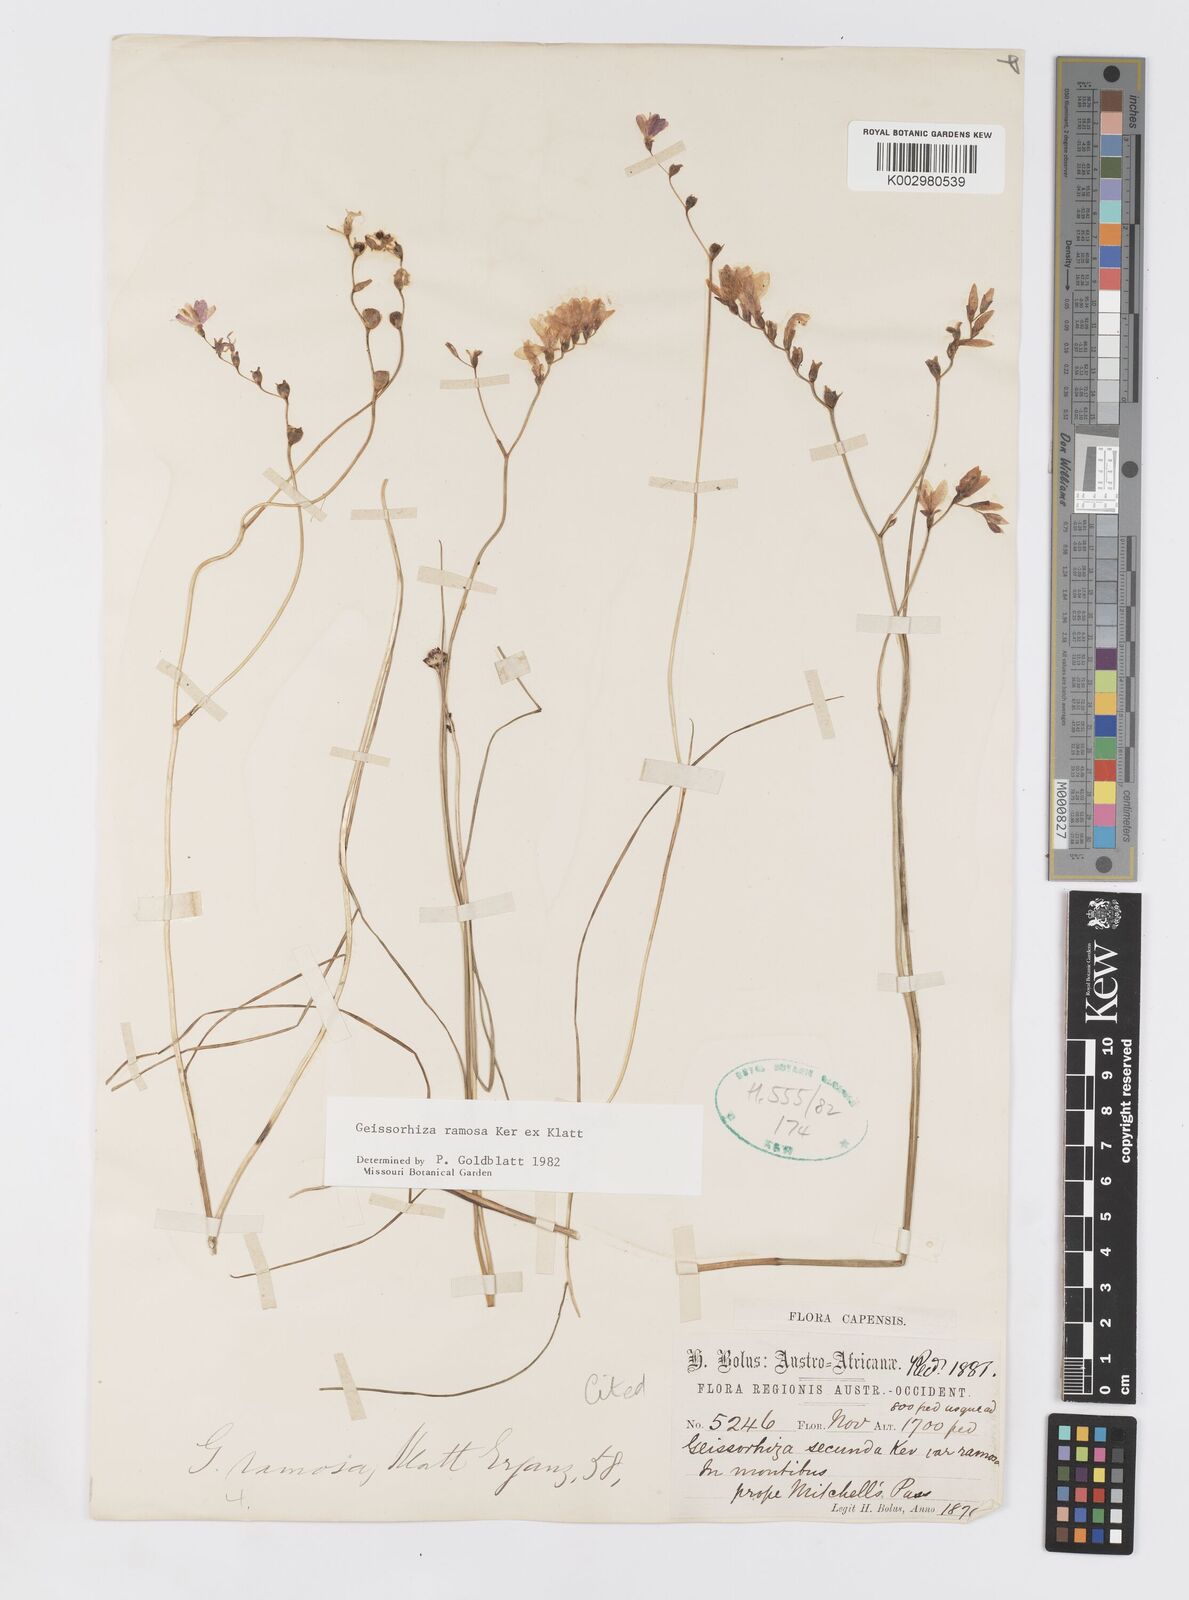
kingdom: Plantae
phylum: Tracheophyta
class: Liliopsida
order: Asparagales
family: Iridaceae
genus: Geissorhiza
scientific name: Geissorhiza ramosa
